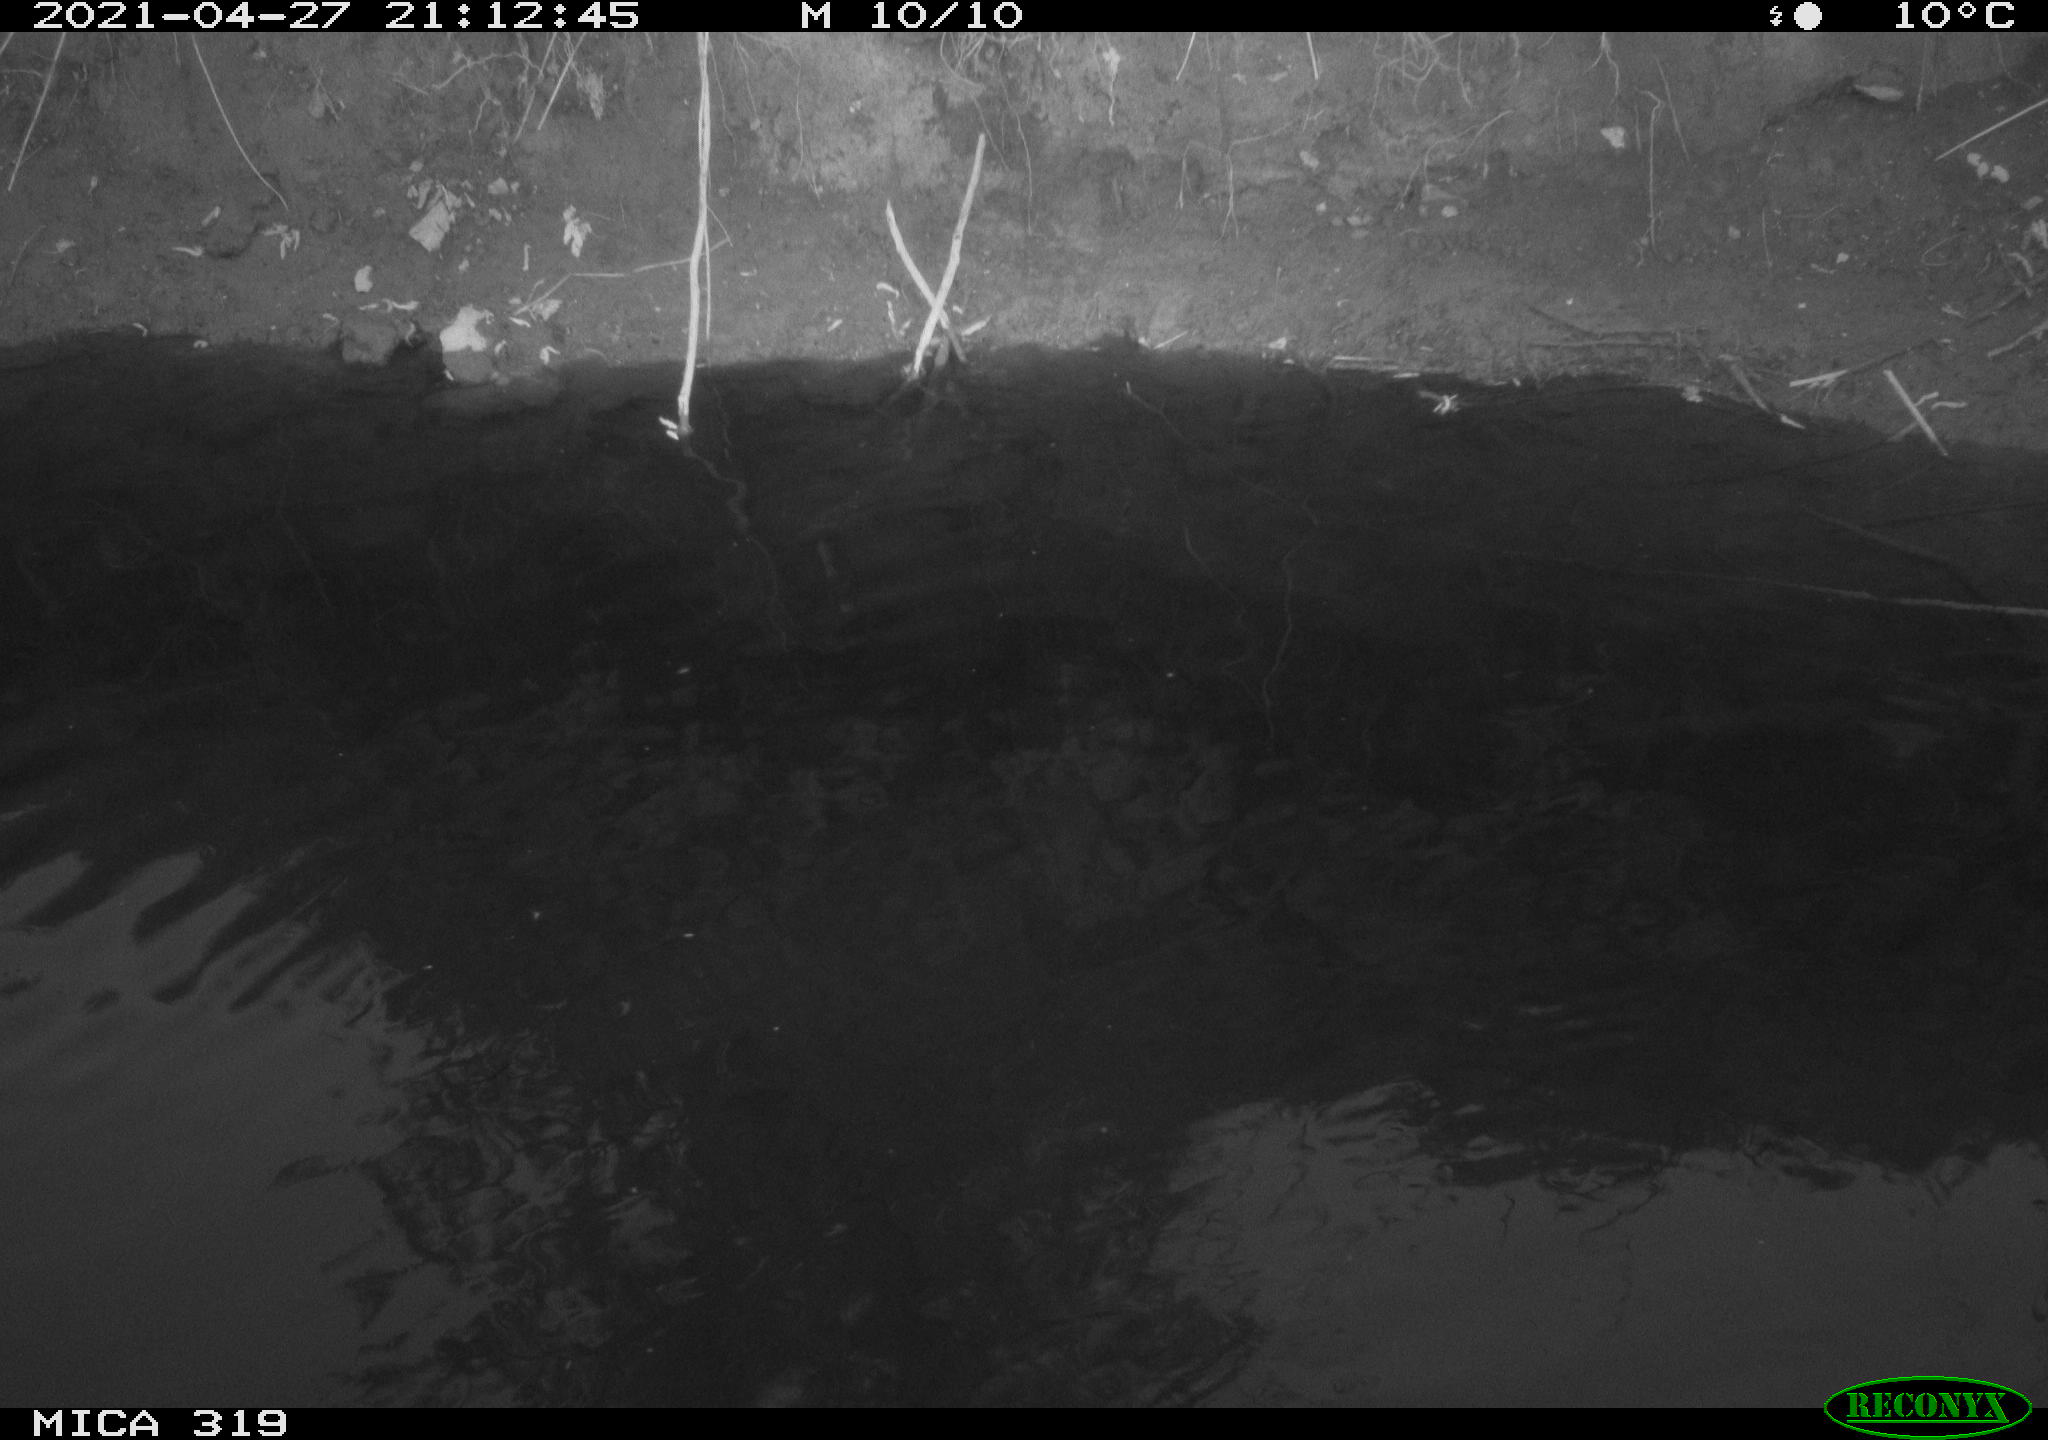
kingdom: Animalia
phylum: Chordata
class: Aves
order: Anseriformes
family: Anatidae
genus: Anas
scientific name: Anas platyrhynchos
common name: Mallard
